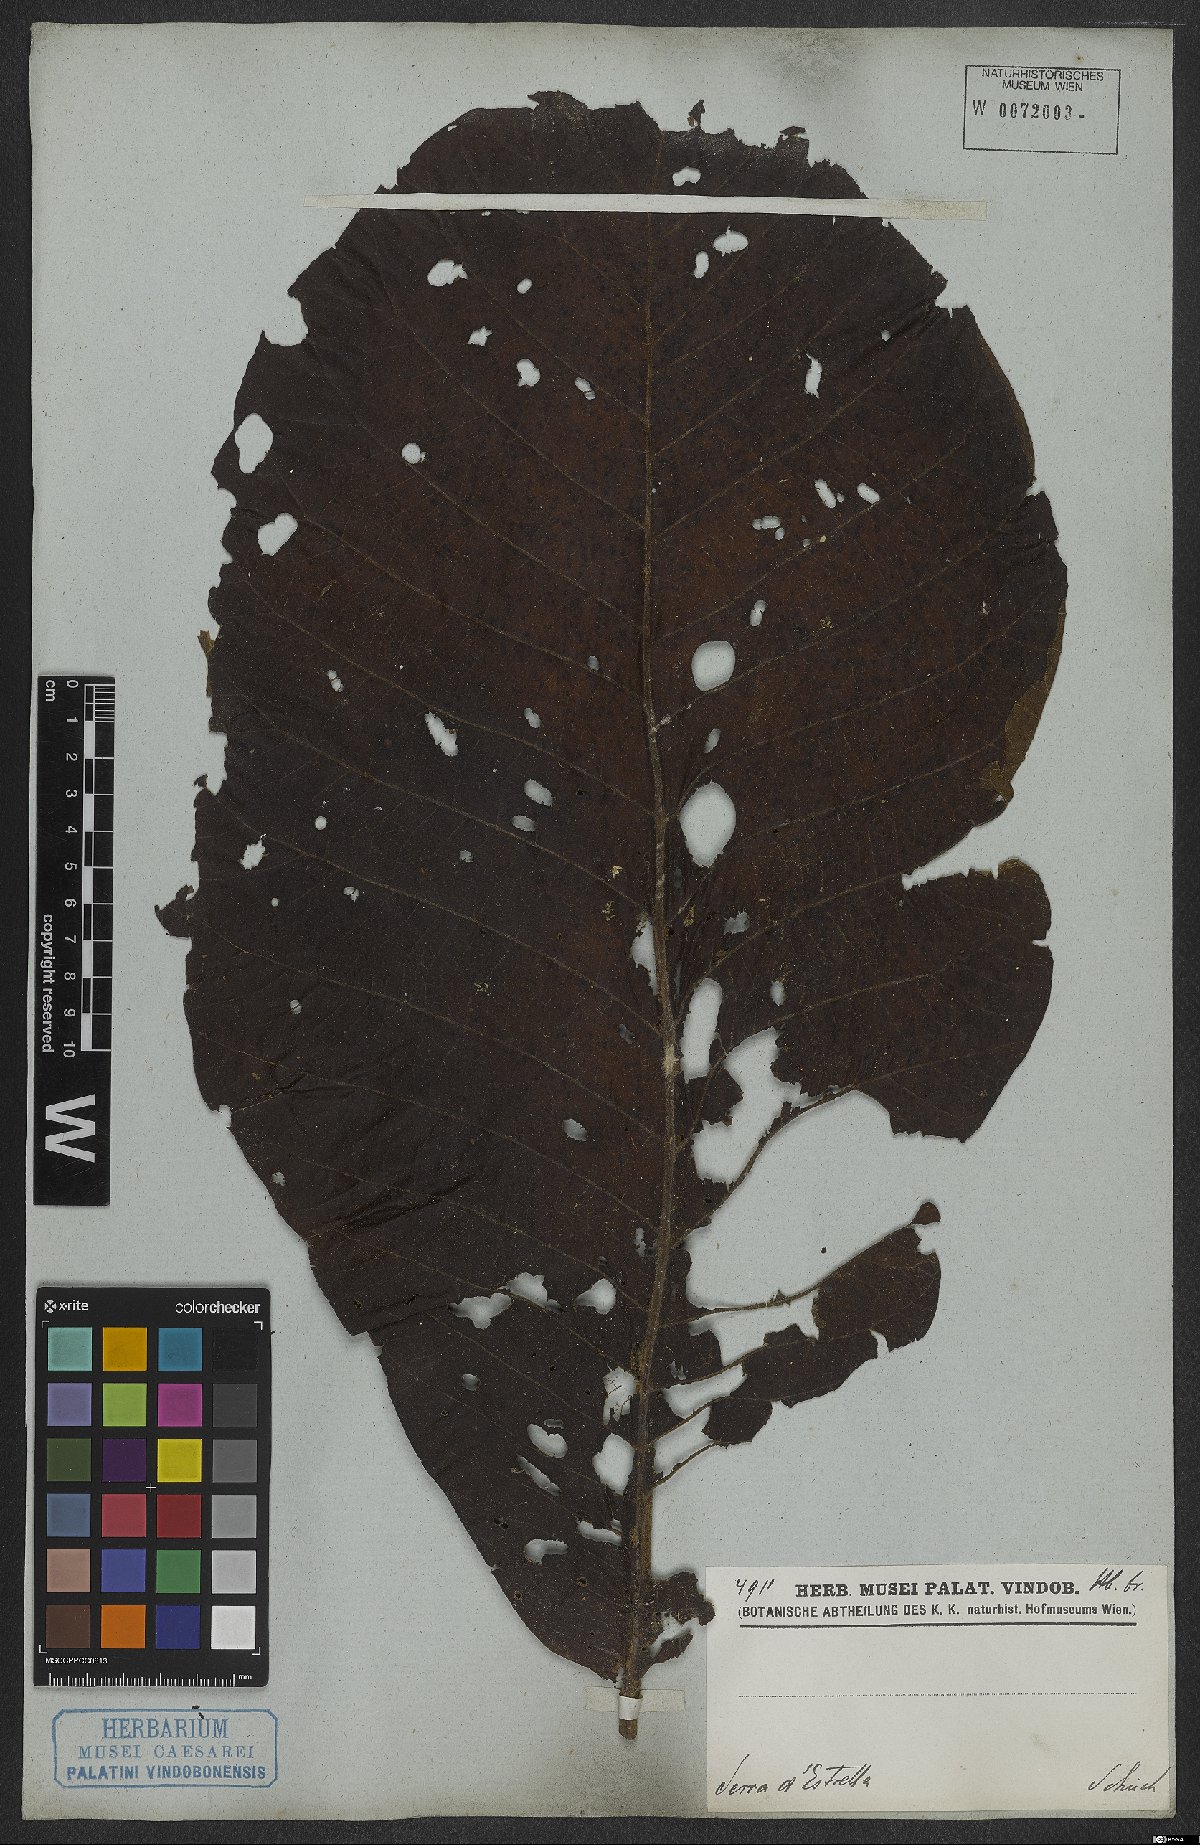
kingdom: Plantae
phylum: Tracheophyta
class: Magnoliopsida
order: Gentianales
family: Rubiaceae
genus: Bathysa
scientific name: Bathysa australis
